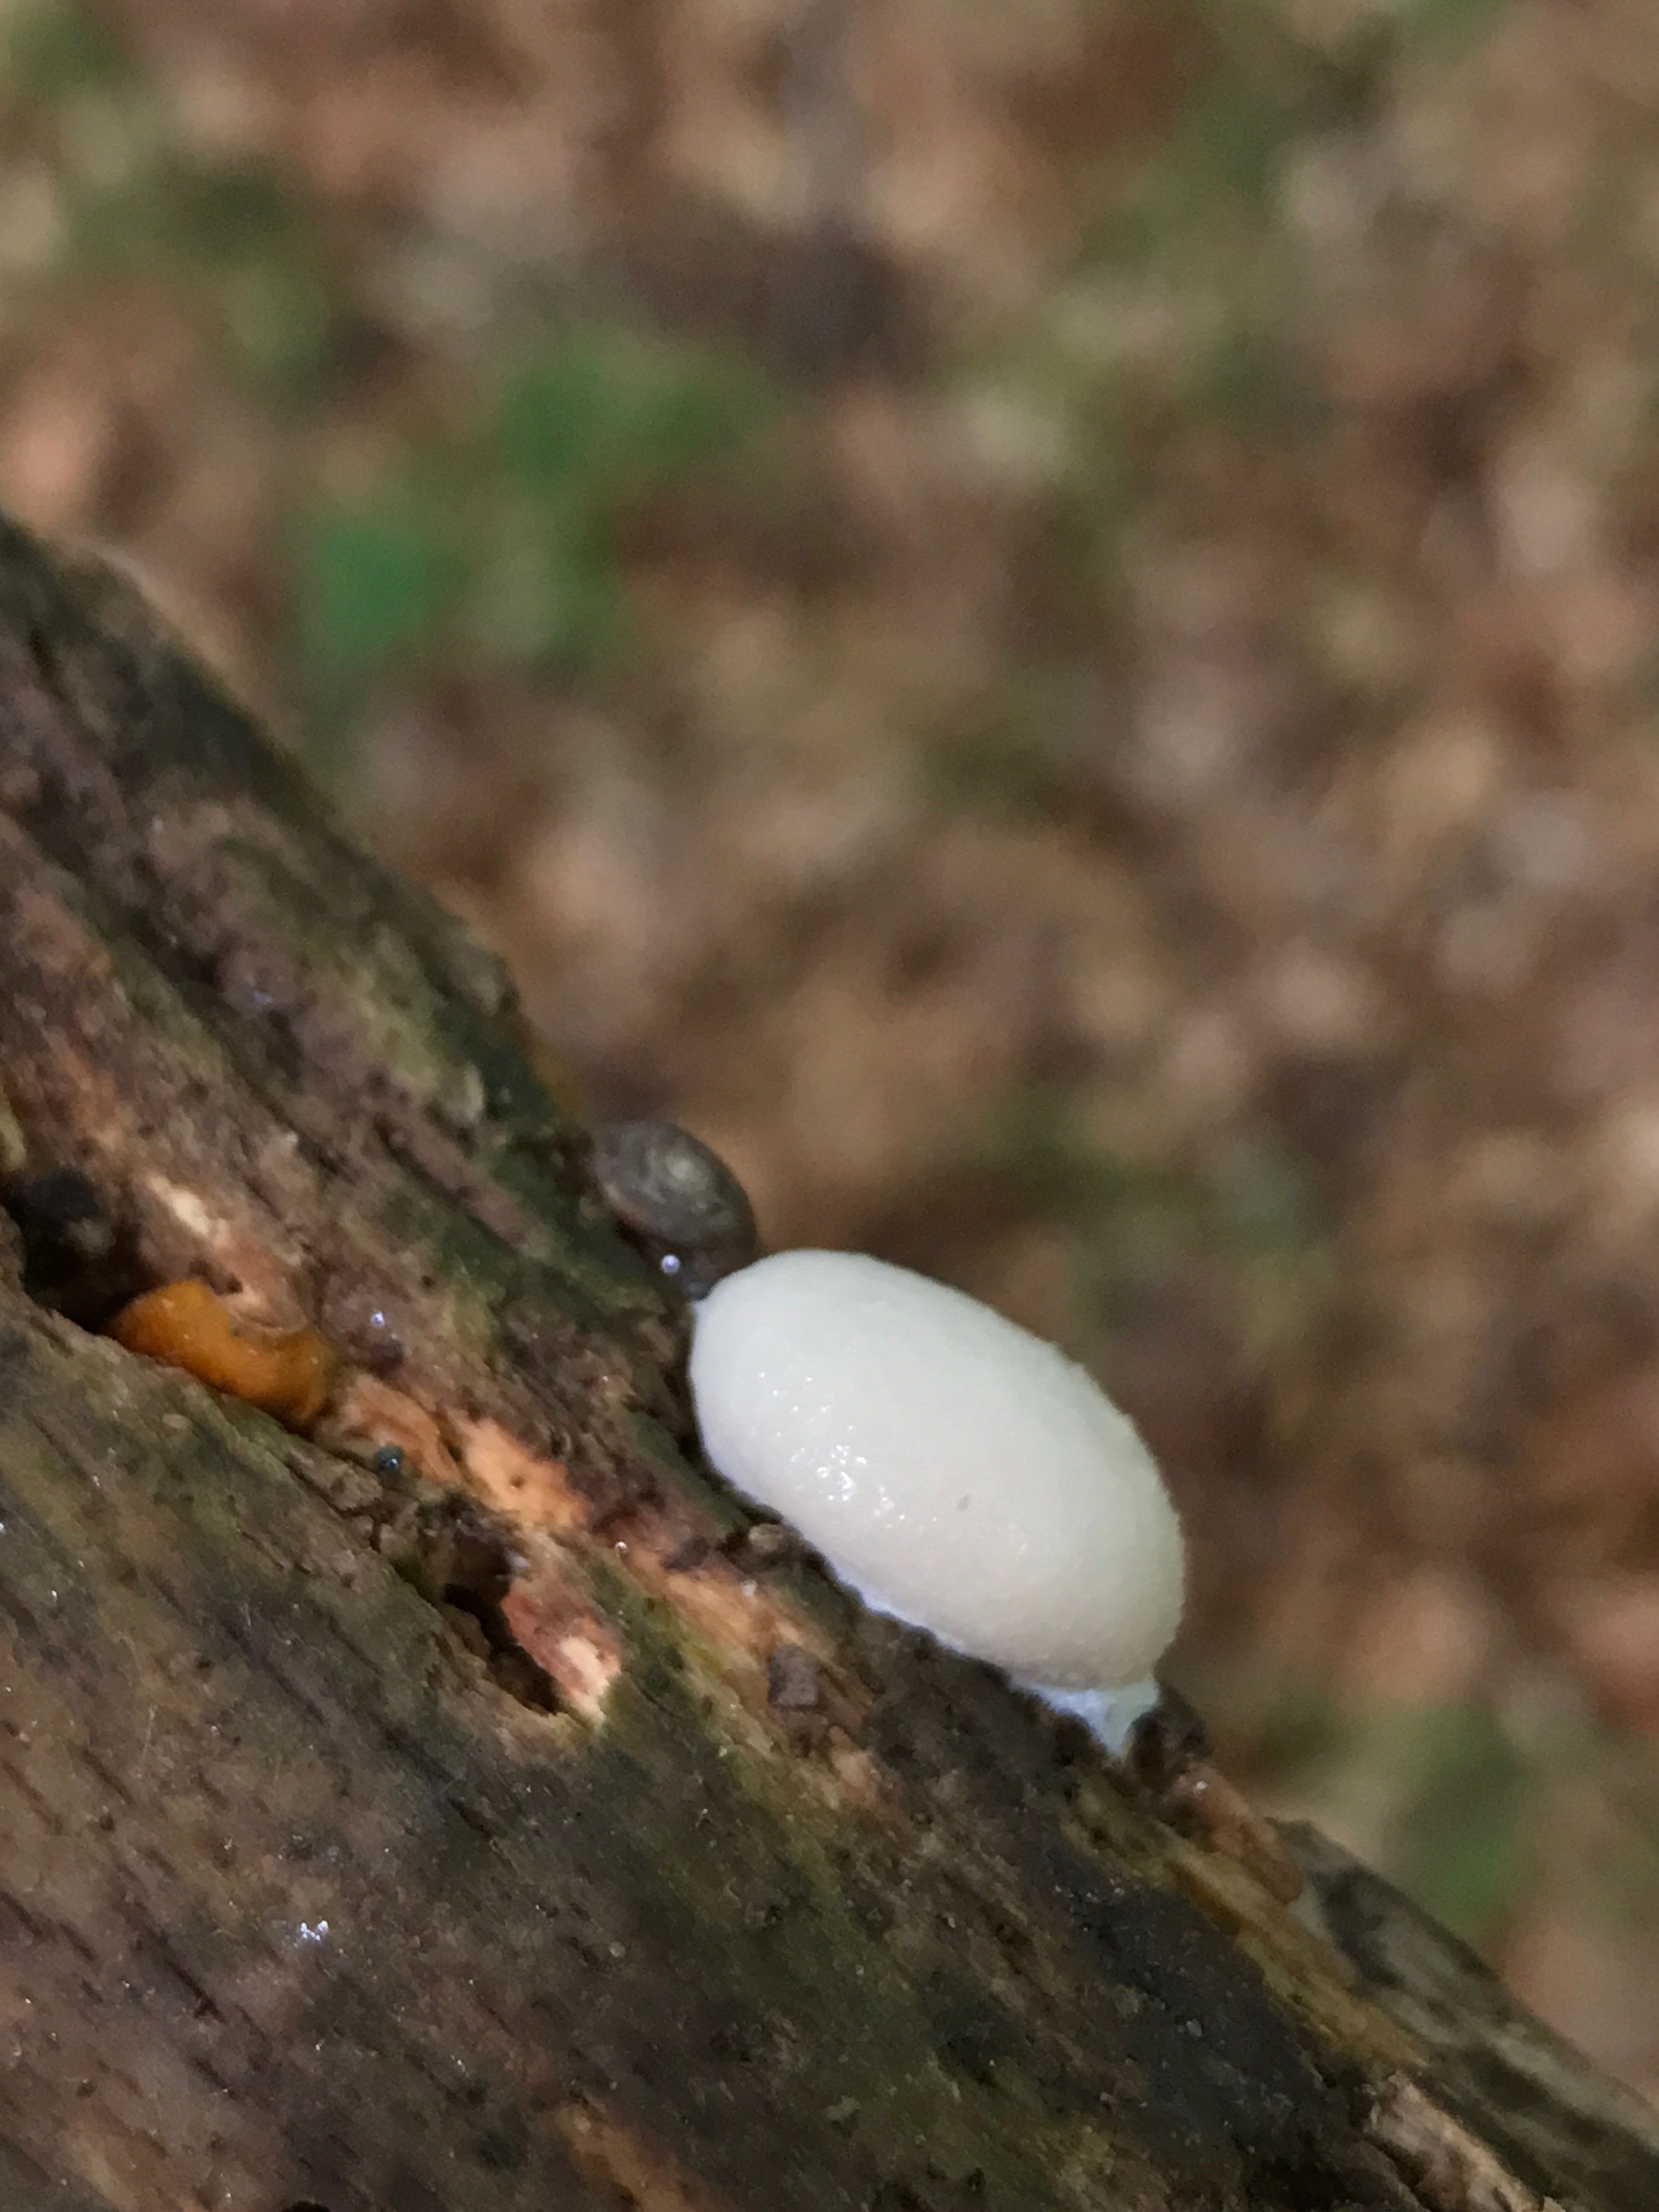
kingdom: Protozoa
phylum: Mycetozoa
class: Myxomycetes
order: Cribrariales
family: Tubiferaceae
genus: Reticularia
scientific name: Reticularia lycoperdon
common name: skinnende støvpude
